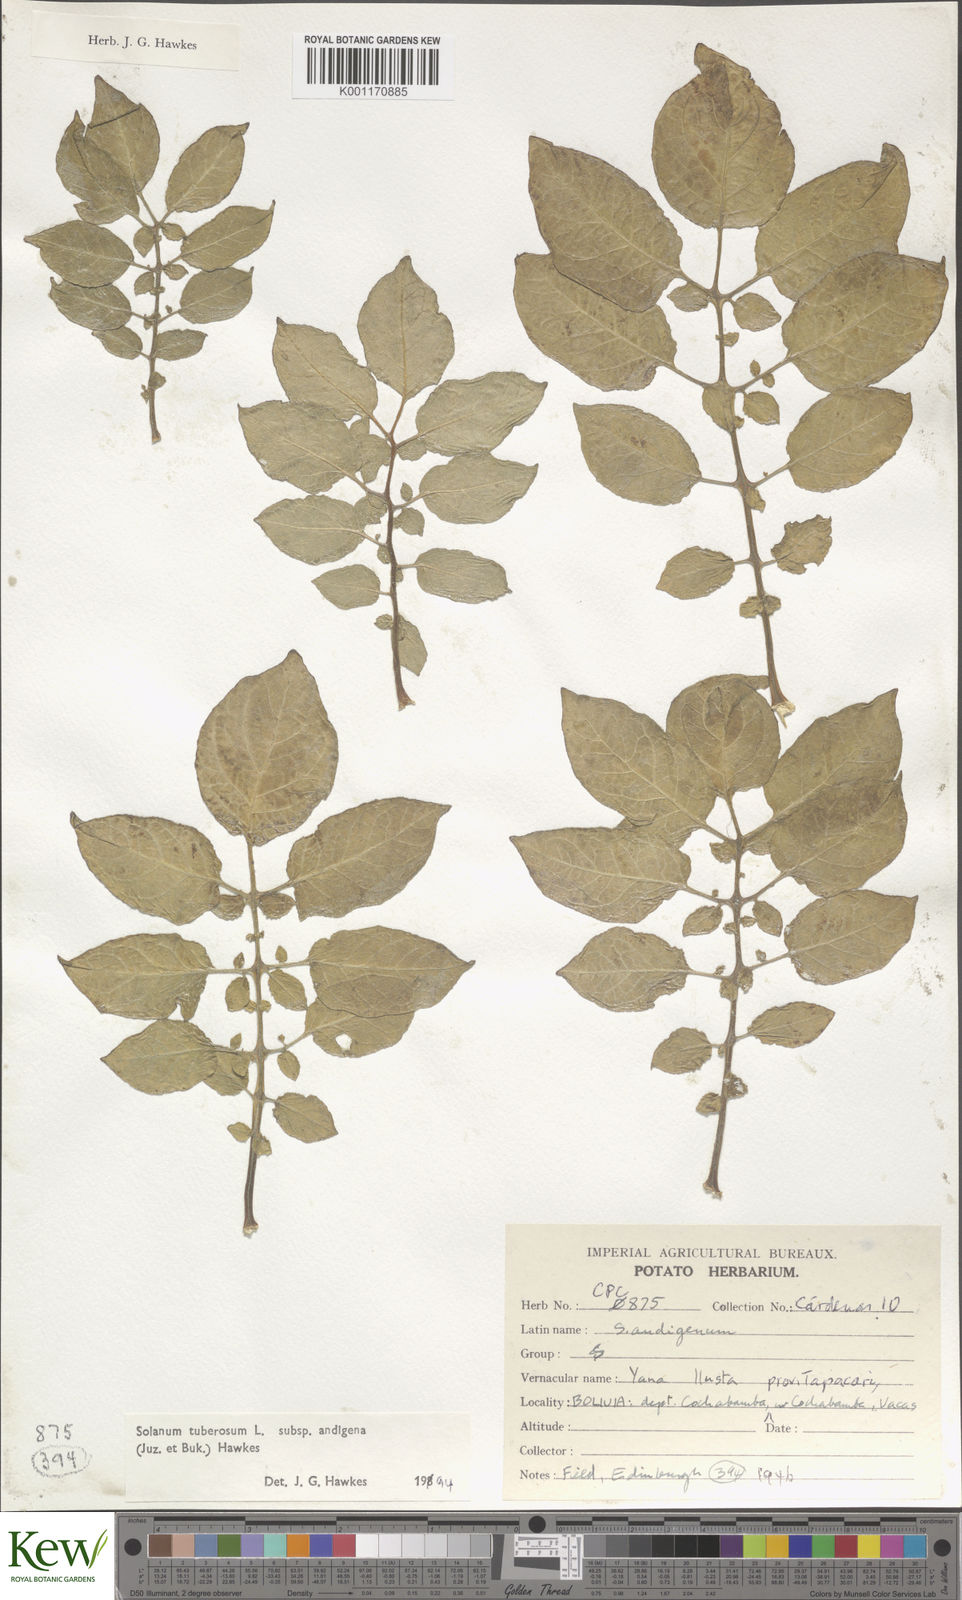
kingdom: Plantae
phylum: Tracheophyta
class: Magnoliopsida
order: Solanales
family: Solanaceae
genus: Solanum
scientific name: Solanum tuberosum
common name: Potato
